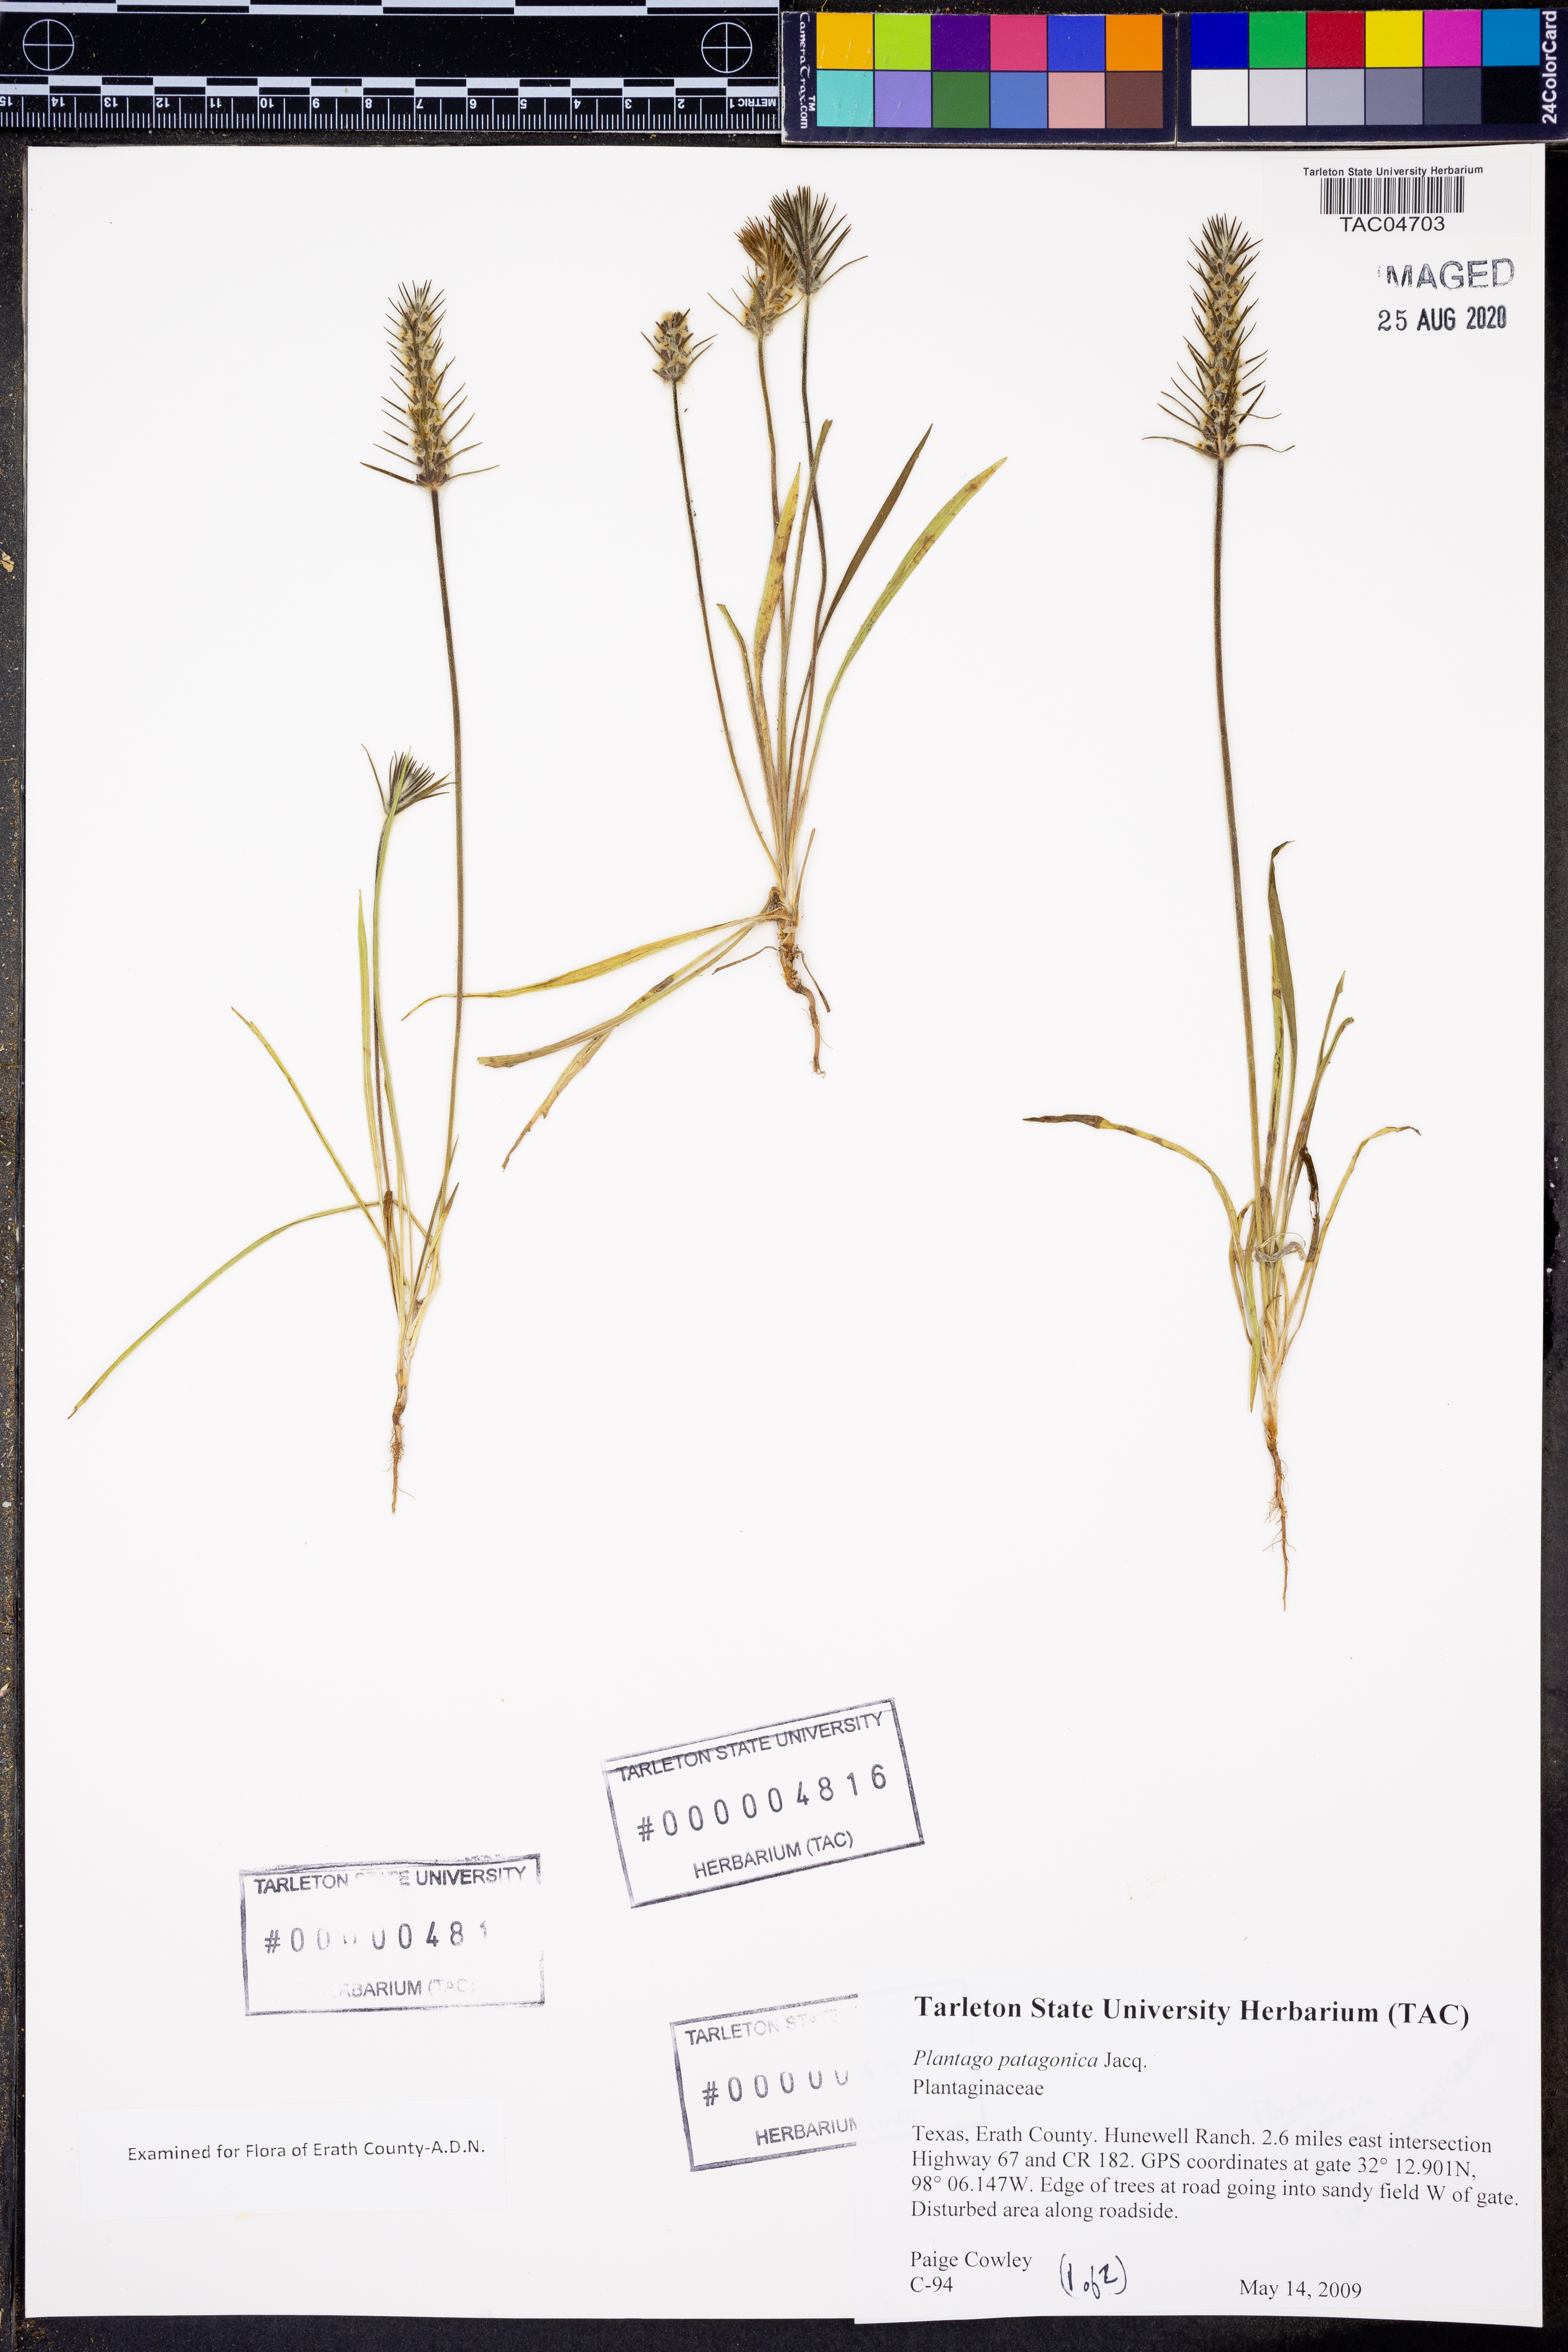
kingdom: Plantae
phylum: Tracheophyta
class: Magnoliopsida
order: Lamiales
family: Plantaginaceae
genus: Plantago
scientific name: Plantago patagonica
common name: Patagonia indian-wheat
